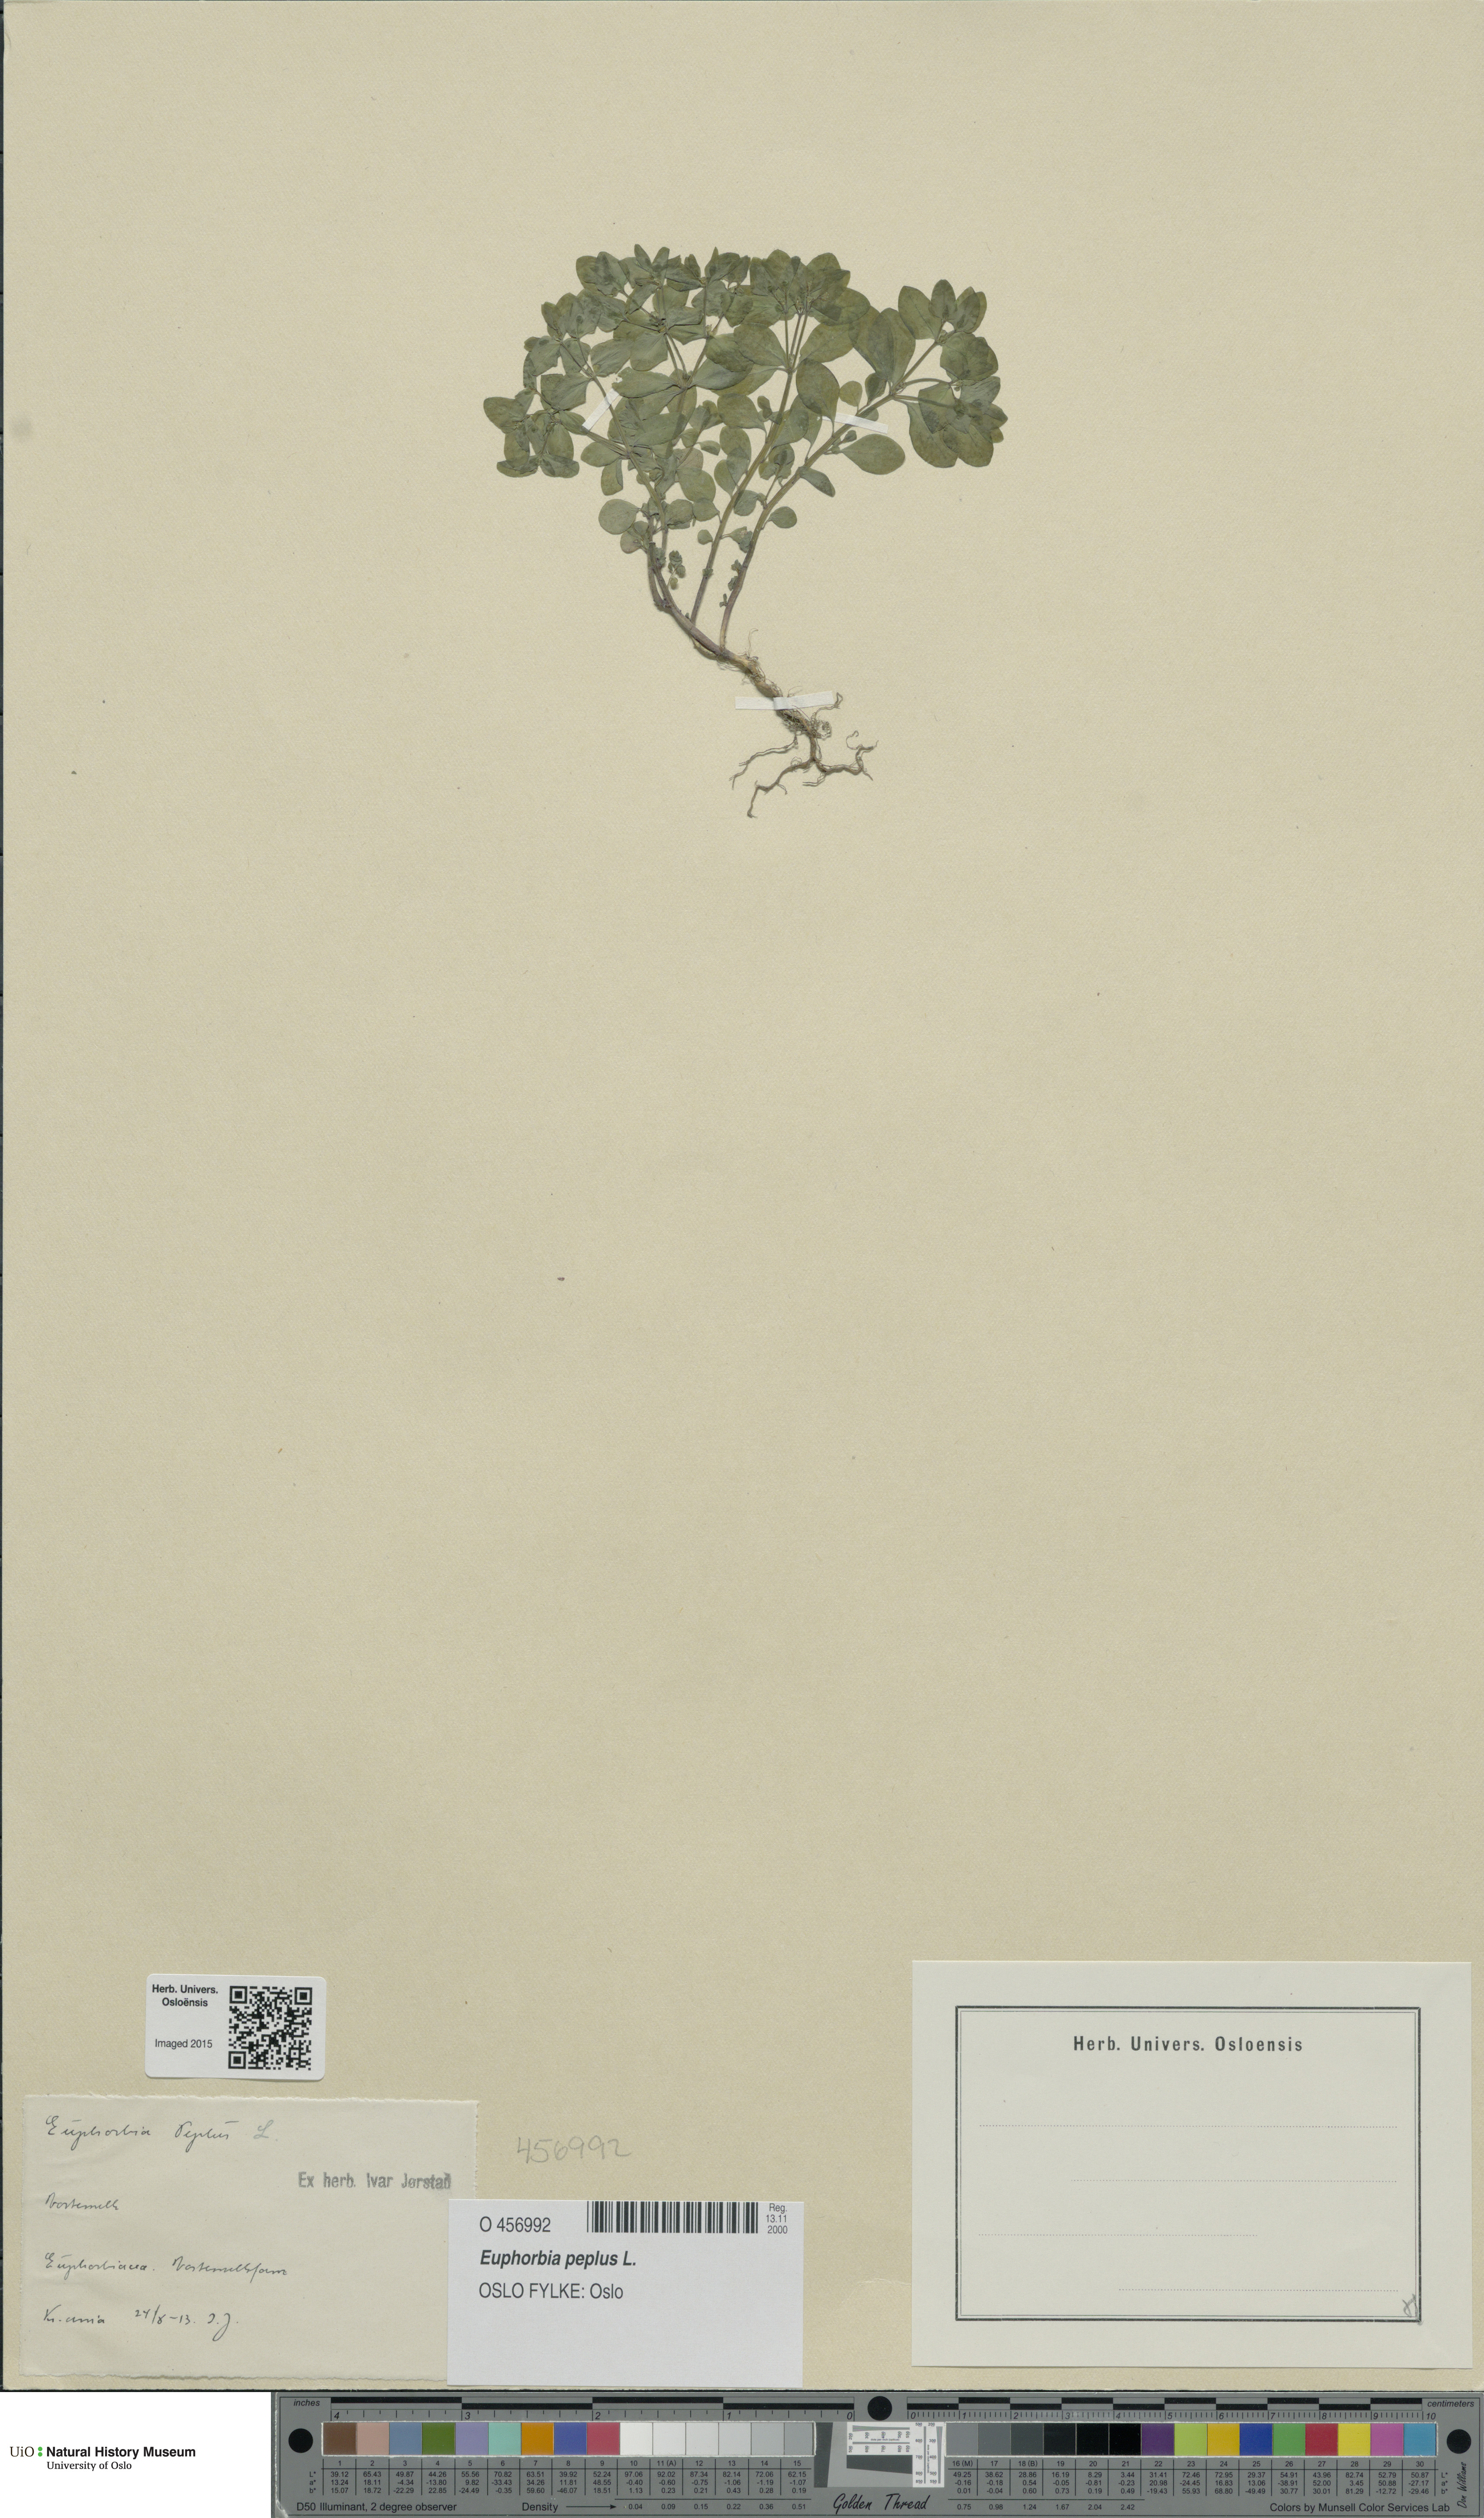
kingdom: Plantae
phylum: Tracheophyta
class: Magnoliopsida
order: Malpighiales
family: Euphorbiaceae
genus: Euphorbia
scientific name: Euphorbia peplus
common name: Petty spurge
